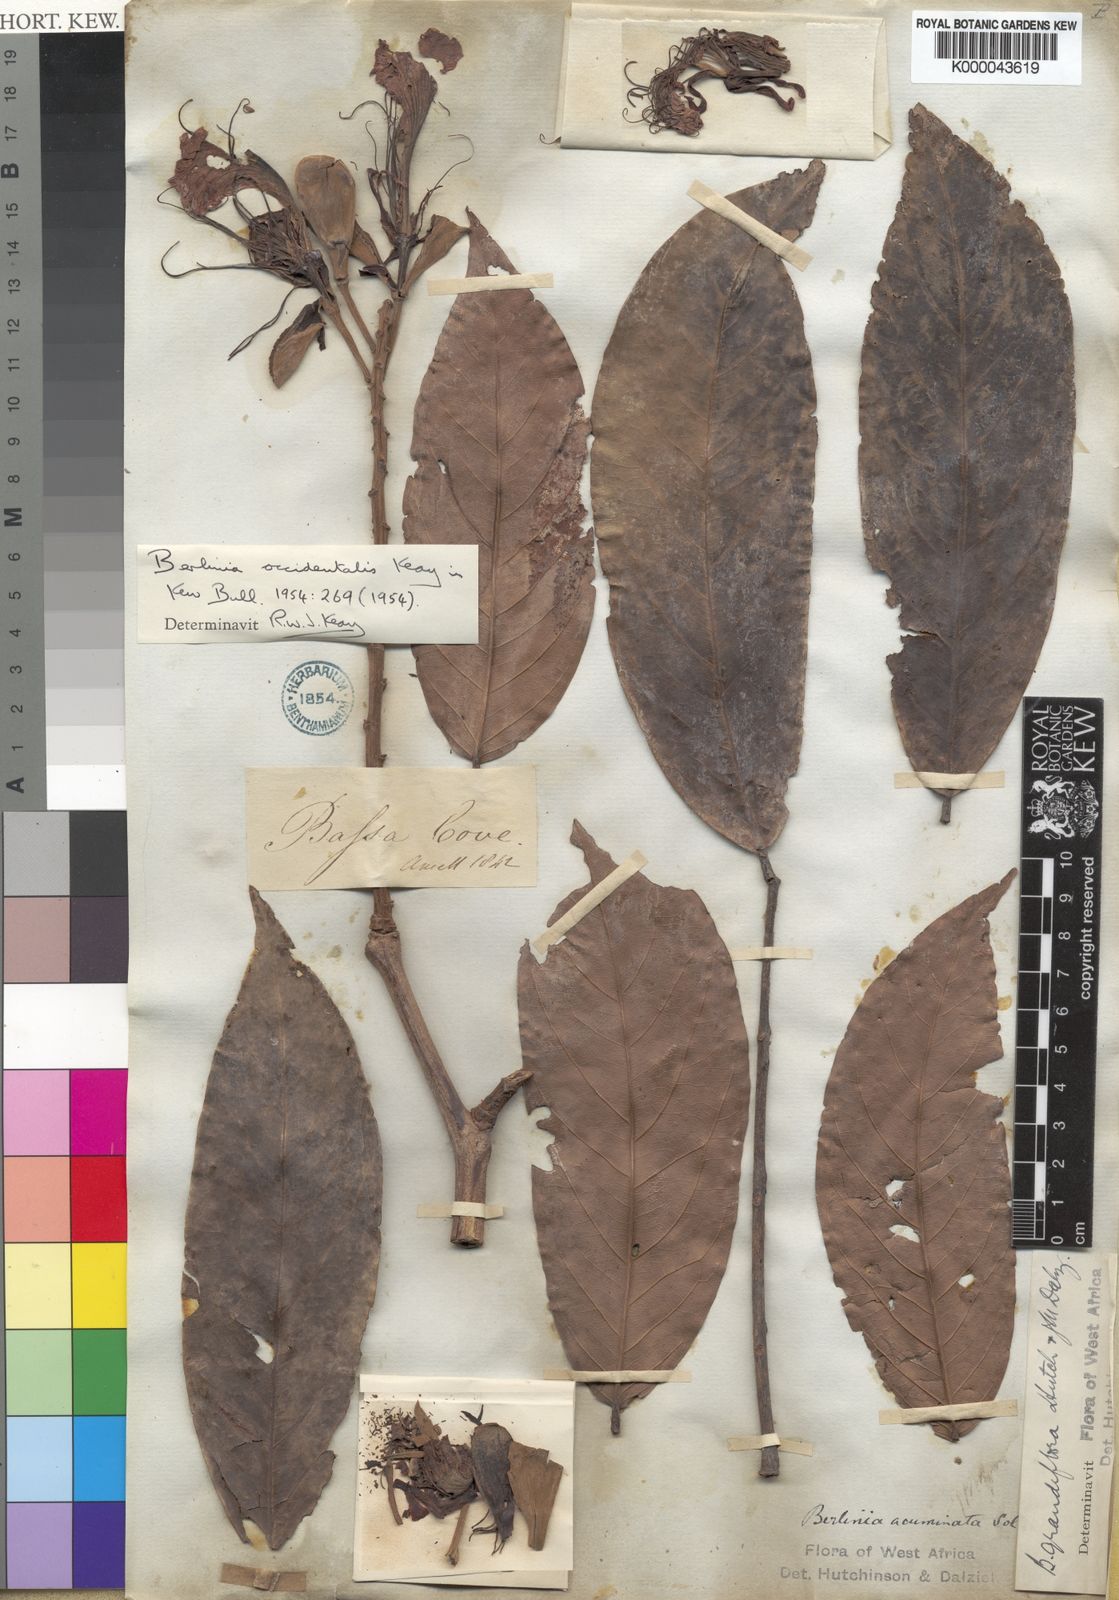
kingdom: Plantae
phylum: Tracheophyta
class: Magnoliopsida
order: Fabales
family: Fabaceae
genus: Berlinia
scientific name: Berlinia occidentalis
